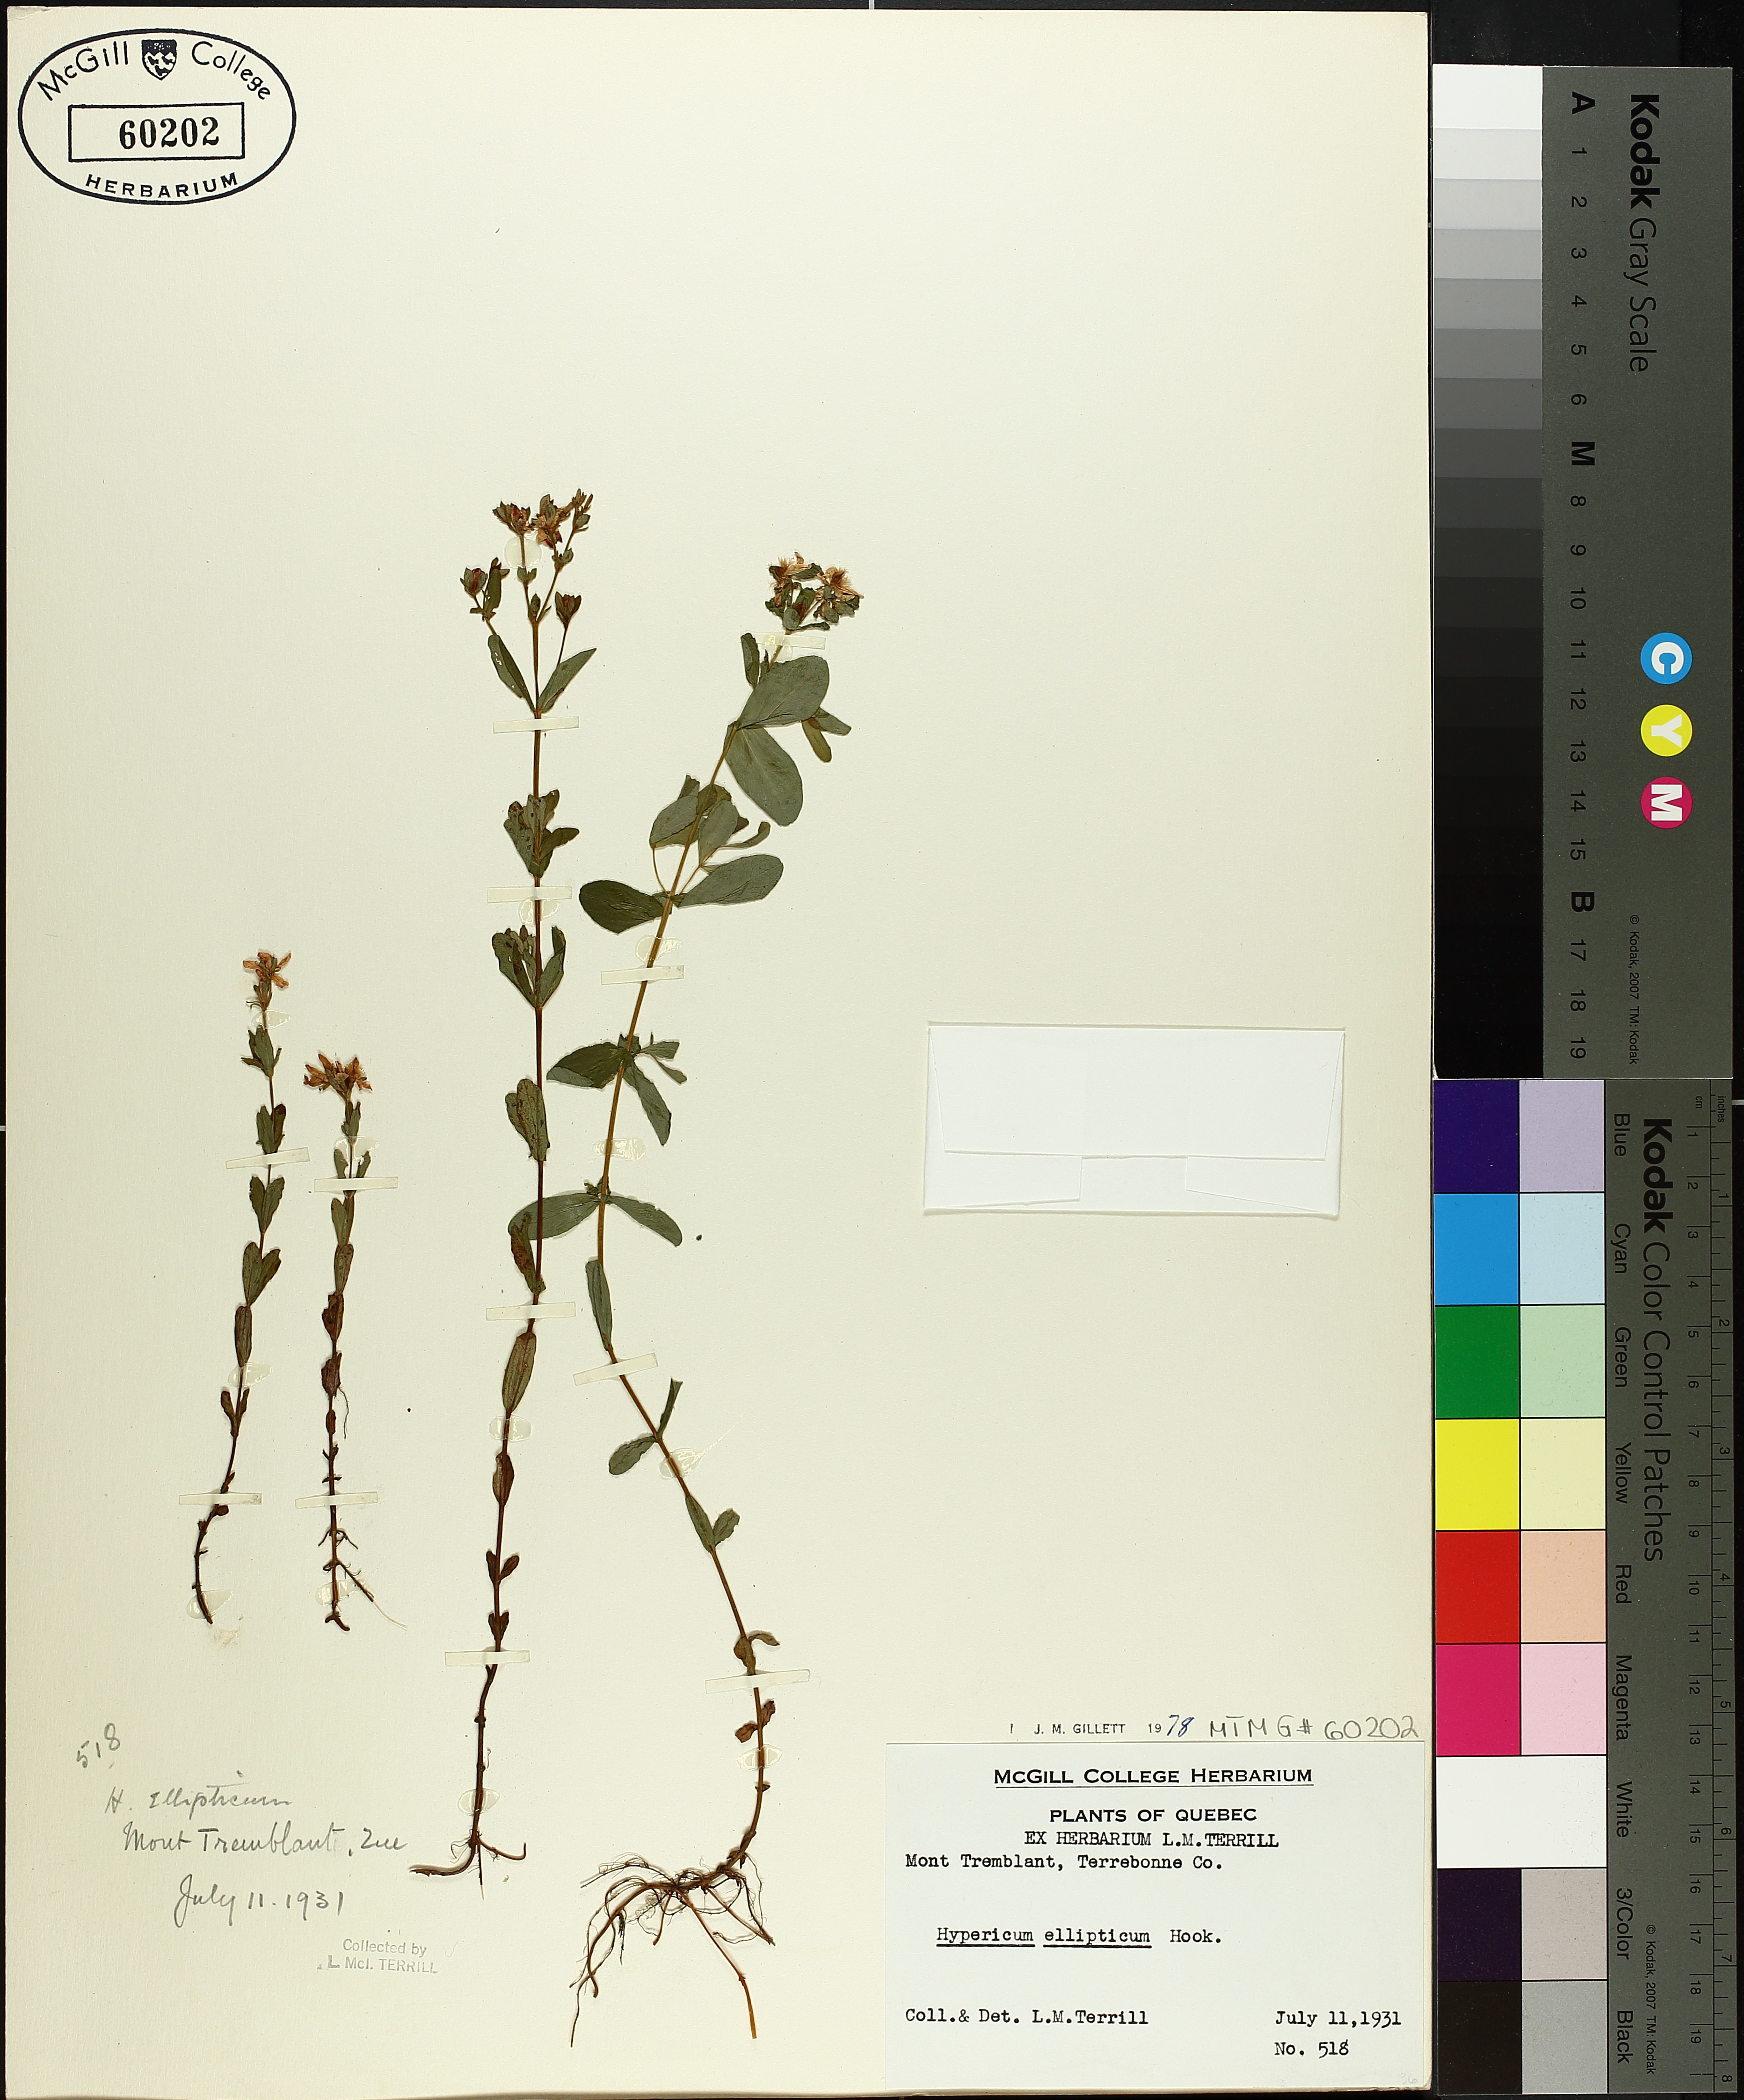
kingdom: Plantae
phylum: Tracheophyta
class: Magnoliopsida
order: Malpighiales
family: Hypericaceae
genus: Hypericum
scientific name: Hypericum ellipticum
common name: Elliptic st. john's-wort
